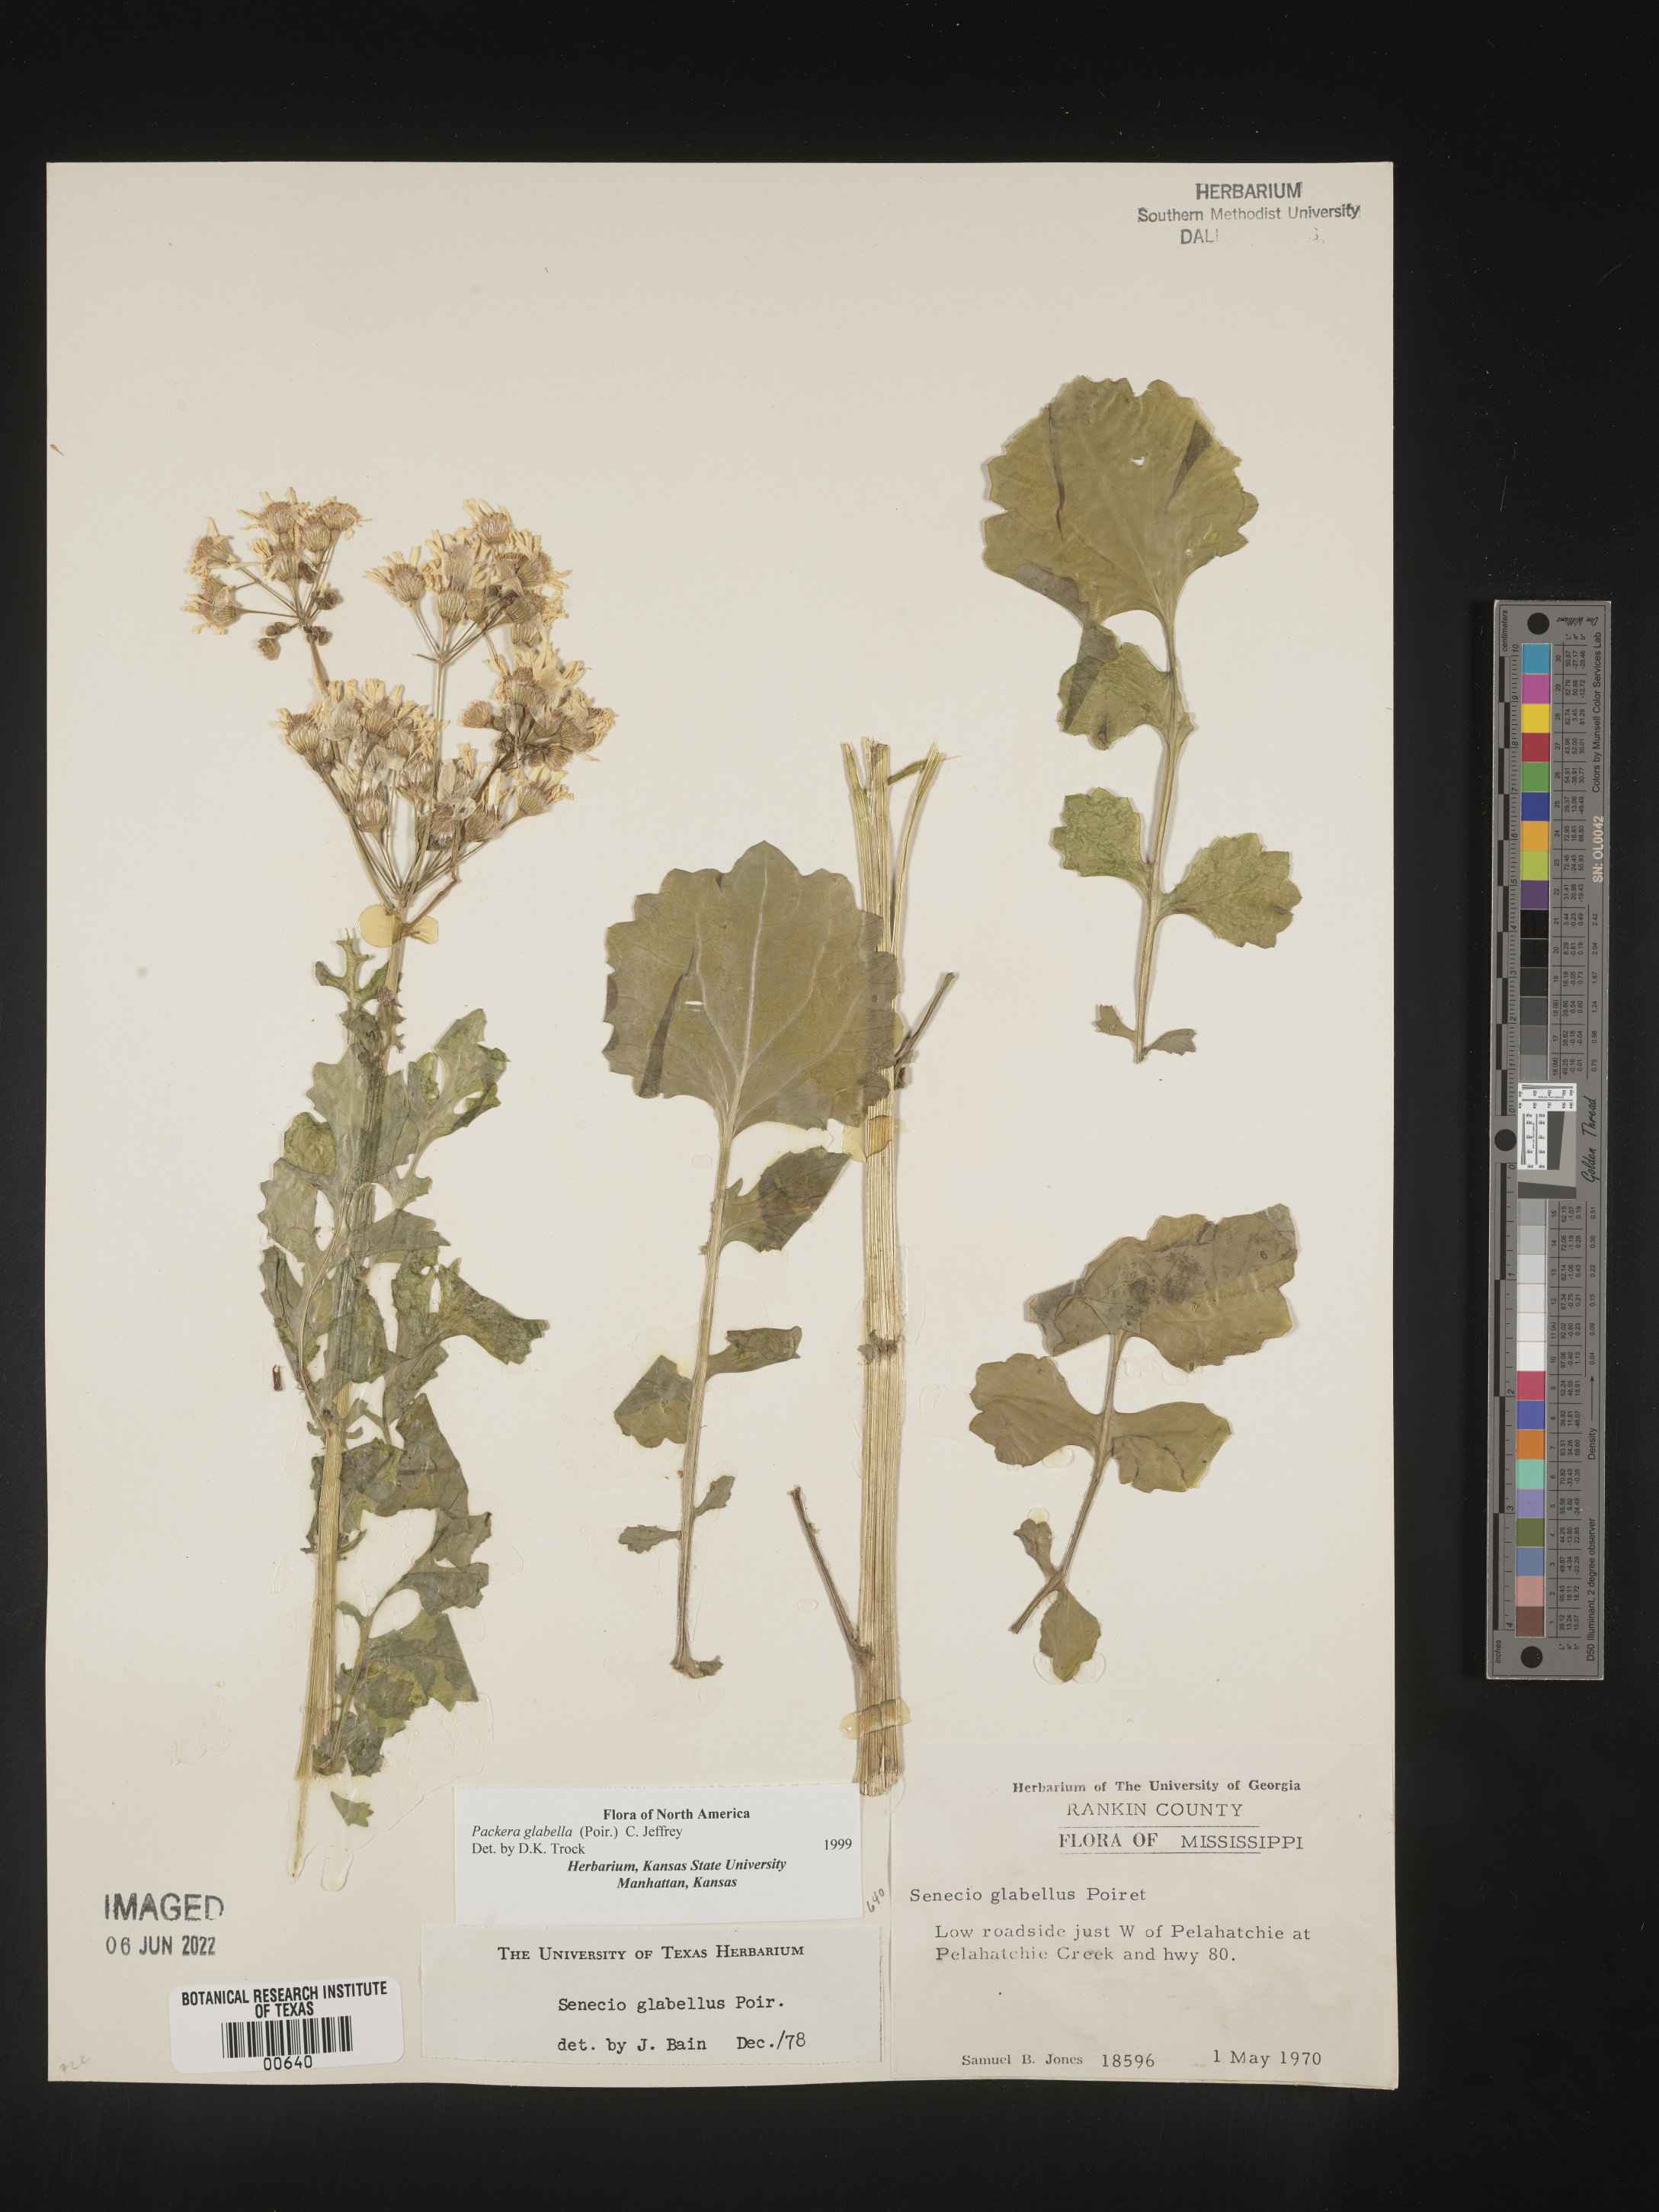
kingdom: Plantae
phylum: Tracheophyta
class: Magnoliopsida
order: Asterales
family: Asteraceae
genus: Packera
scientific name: Packera glabella
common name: Butterweed
